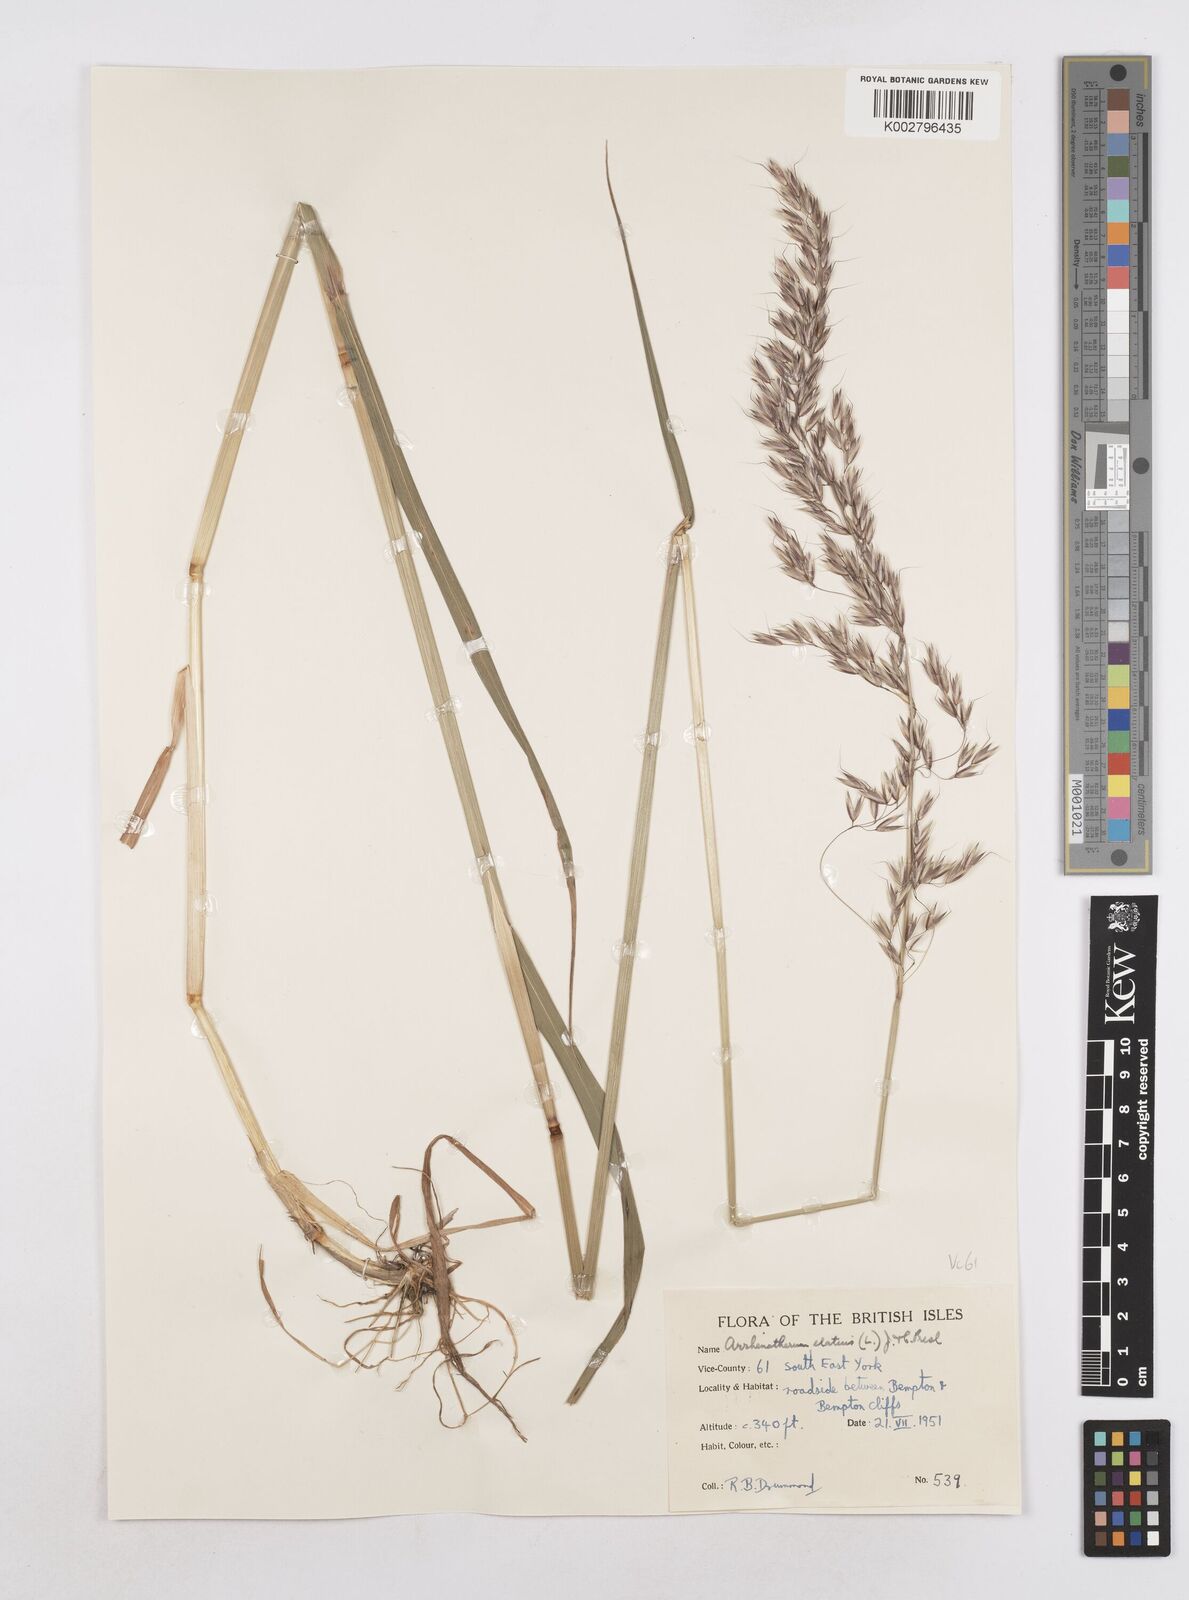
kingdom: Plantae
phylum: Tracheophyta
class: Liliopsida
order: Poales
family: Poaceae
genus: Arrhenatherum
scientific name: Arrhenatherum elatius
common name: Tall oatgrass
